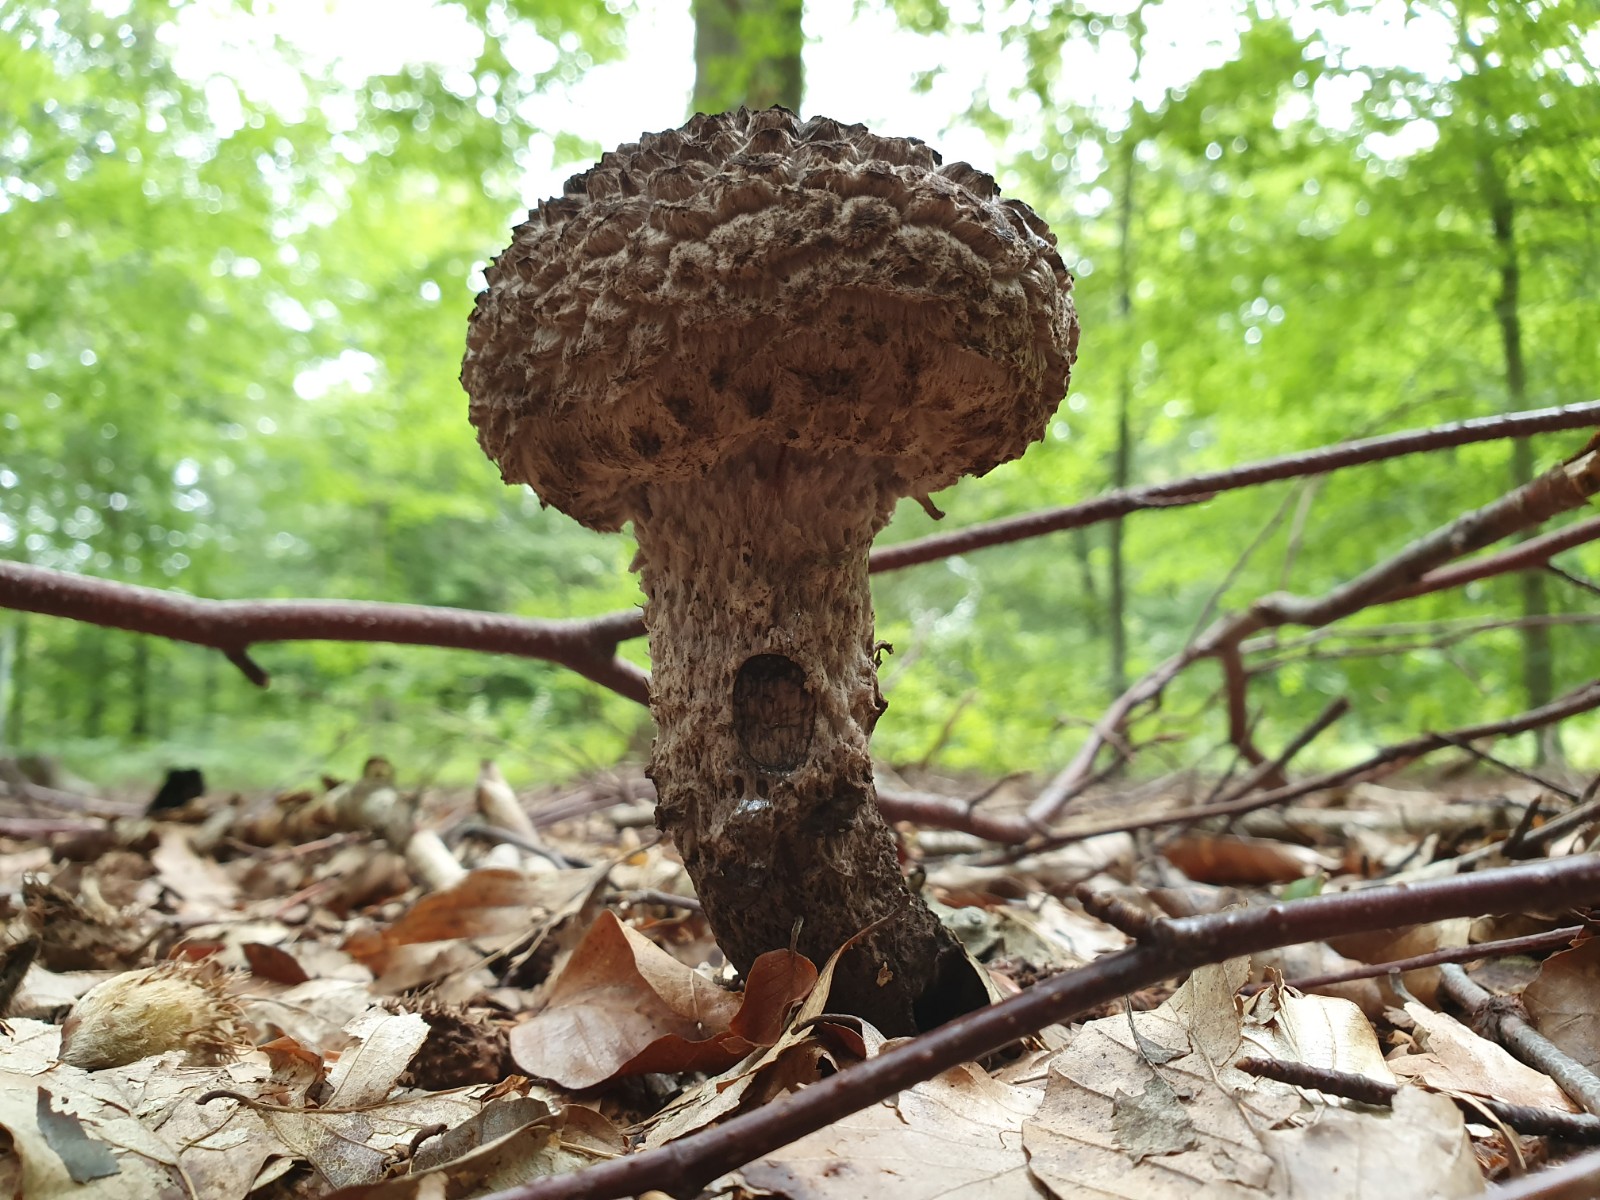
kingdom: Fungi
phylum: Basidiomycota
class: Agaricomycetes
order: Boletales
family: Boletaceae
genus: Strobilomyces
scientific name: Strobilomyces strobilaceus
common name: koglerørhat
